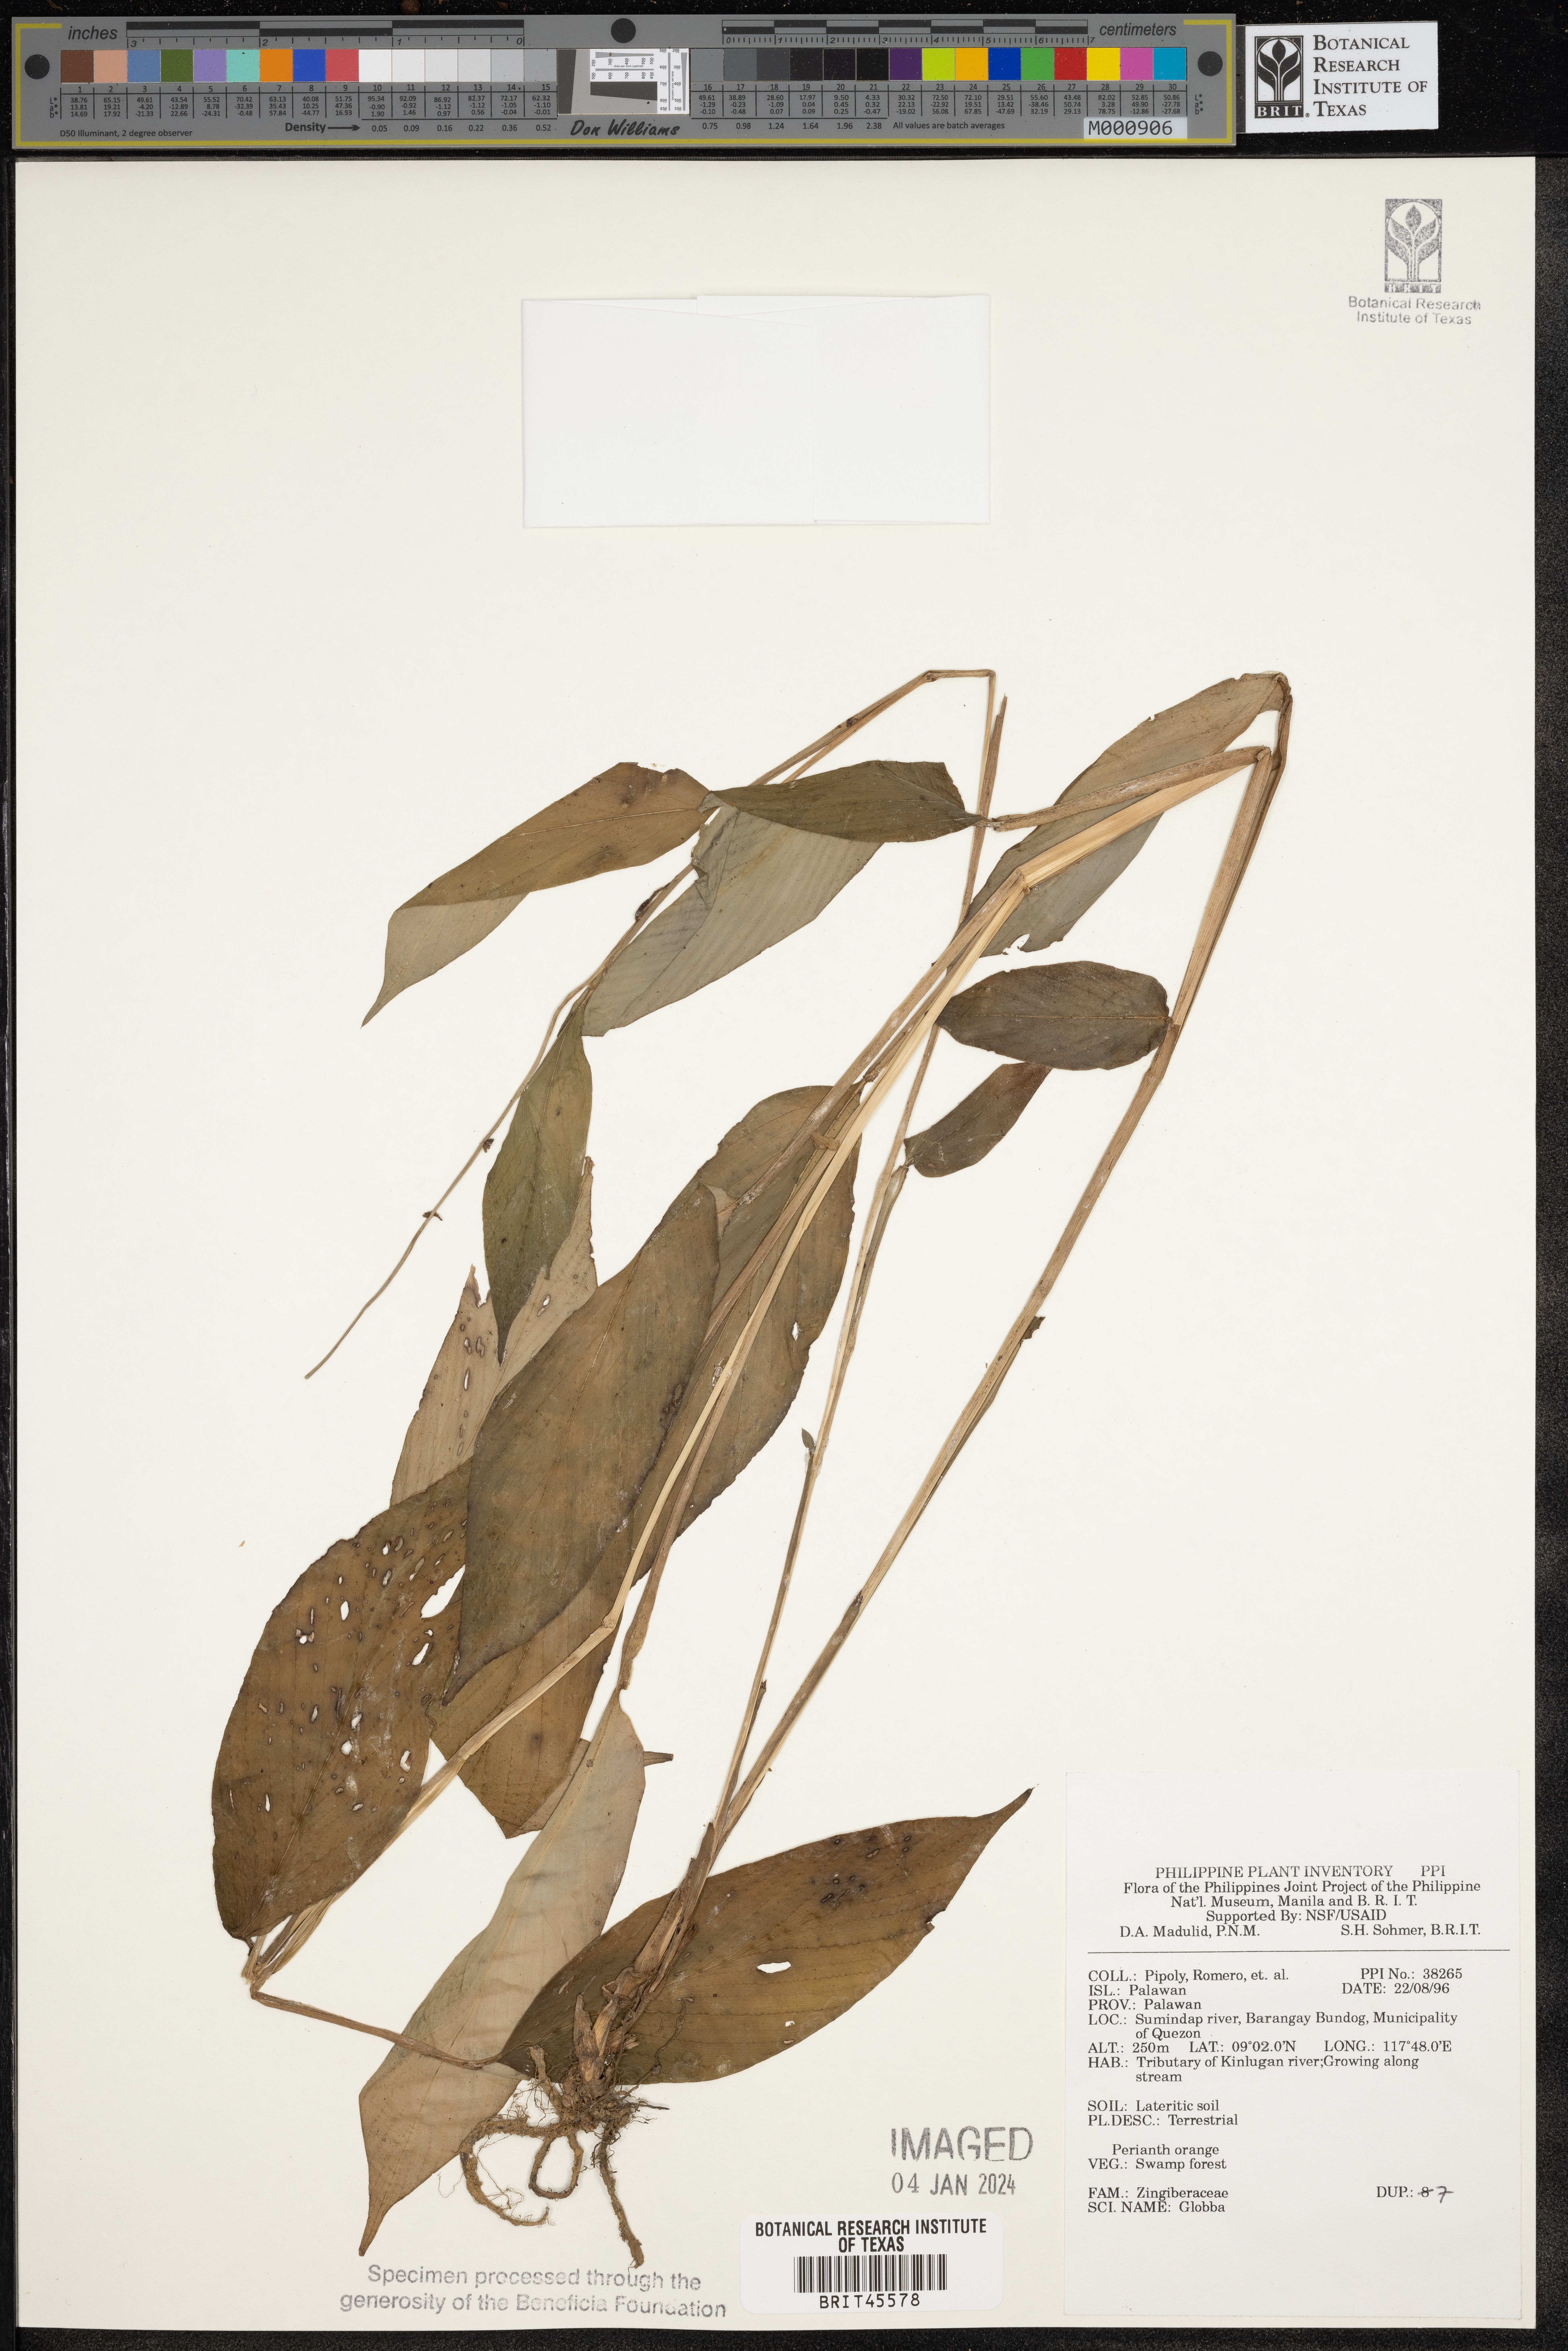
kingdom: Plantae
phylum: Tracheophyta
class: Liliopsida
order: Zingiberales
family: Zingiberaceae
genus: Globba
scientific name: Globba
